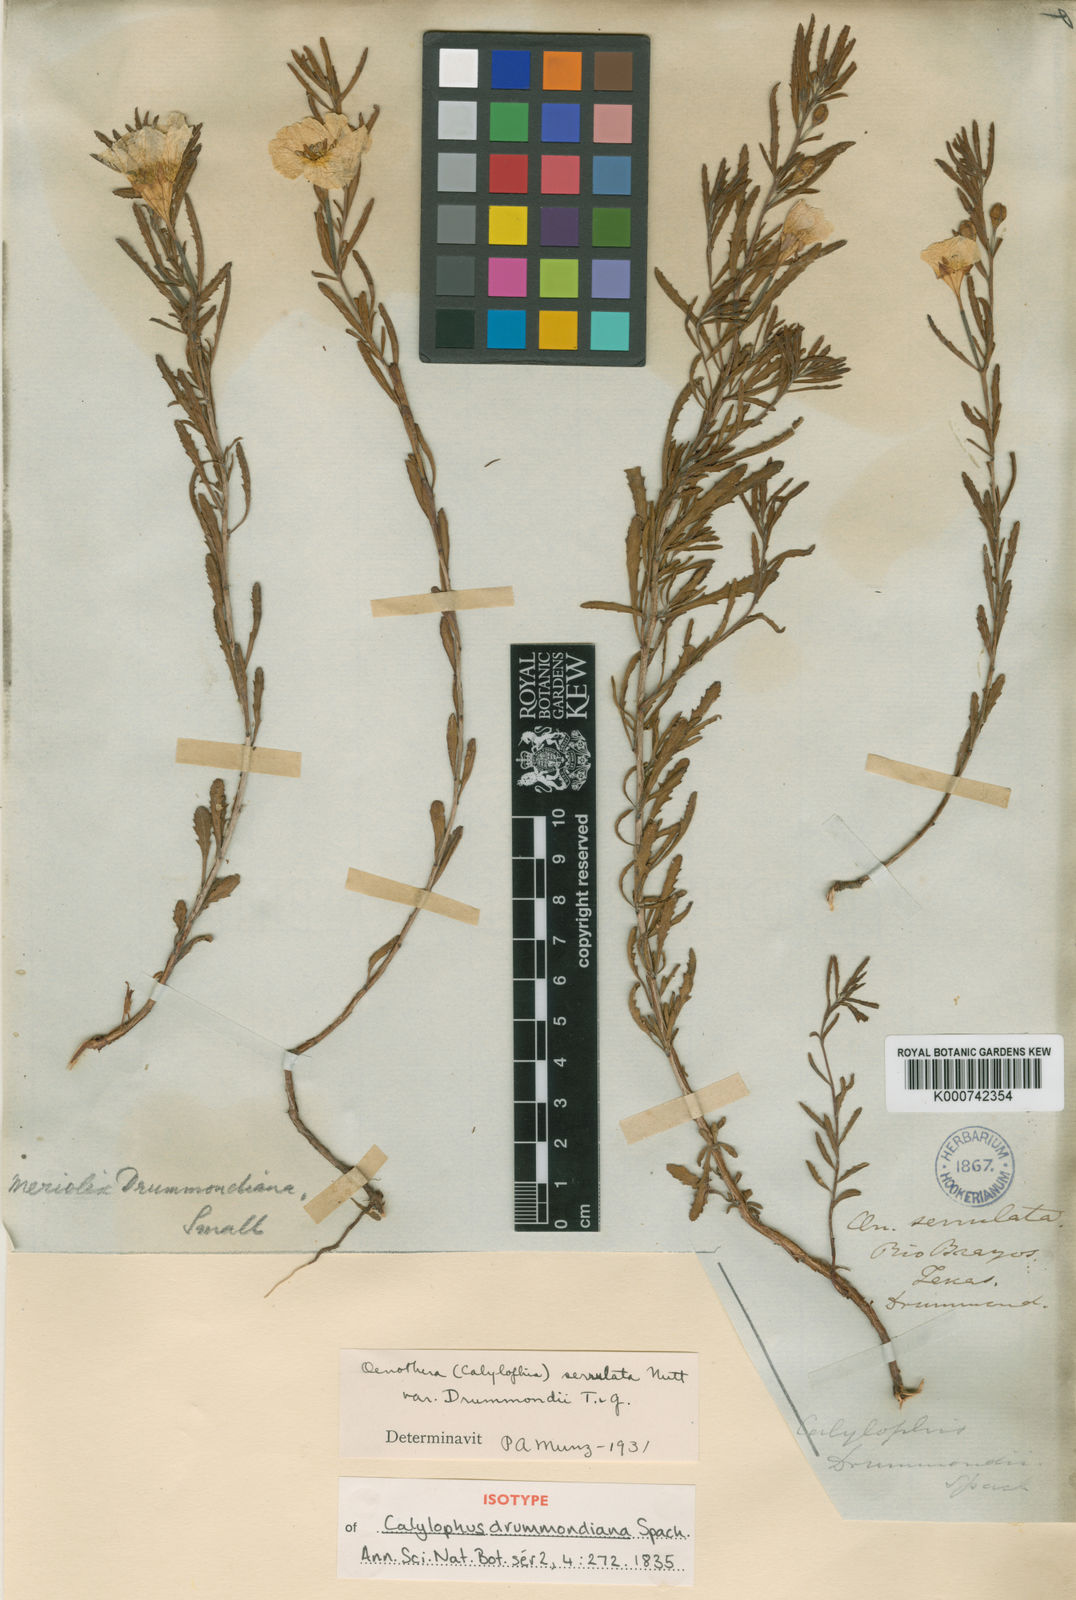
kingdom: Plantae
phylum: Tracheophyta
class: Magnoliopsida
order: Myrtales
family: Onagraceae
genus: Oenothera
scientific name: Oenothera serrulata
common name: Half-shrub calylophus
